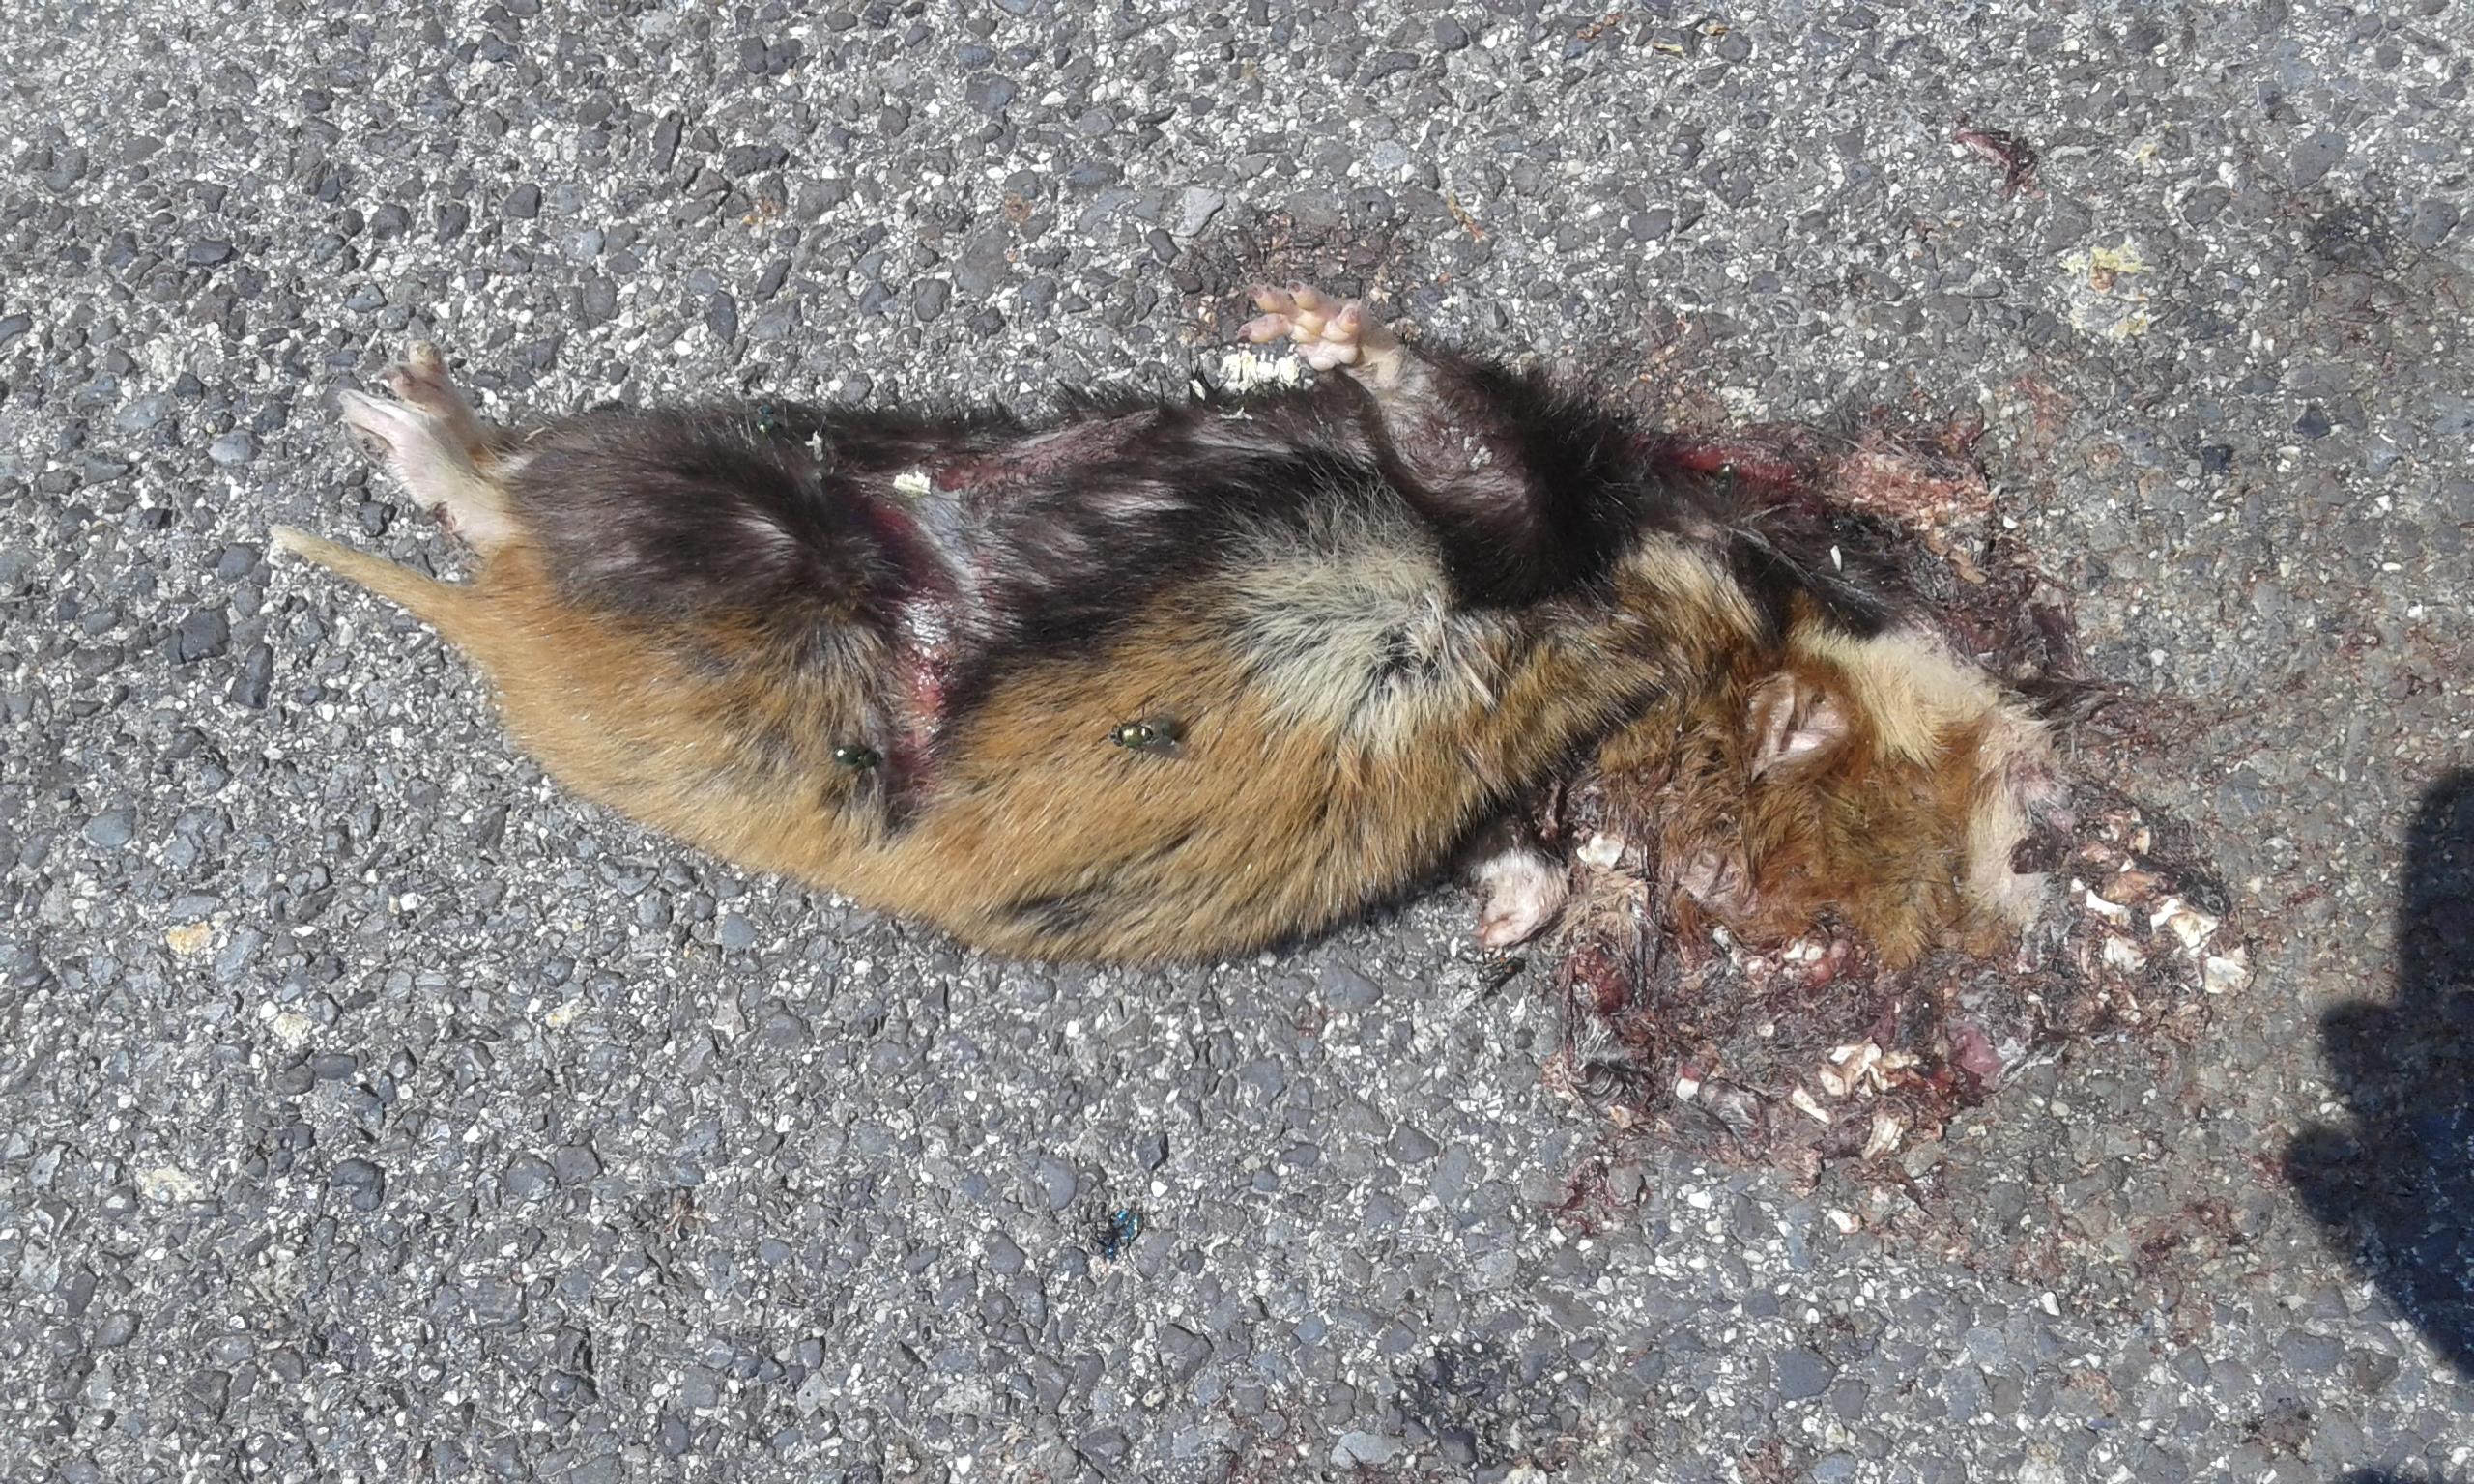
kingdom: Animalia
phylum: Chordata
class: Mammalia
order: Rodentia
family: Cricetidae
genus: Cricetus
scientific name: Cricetus cricetus
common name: Common hamster
